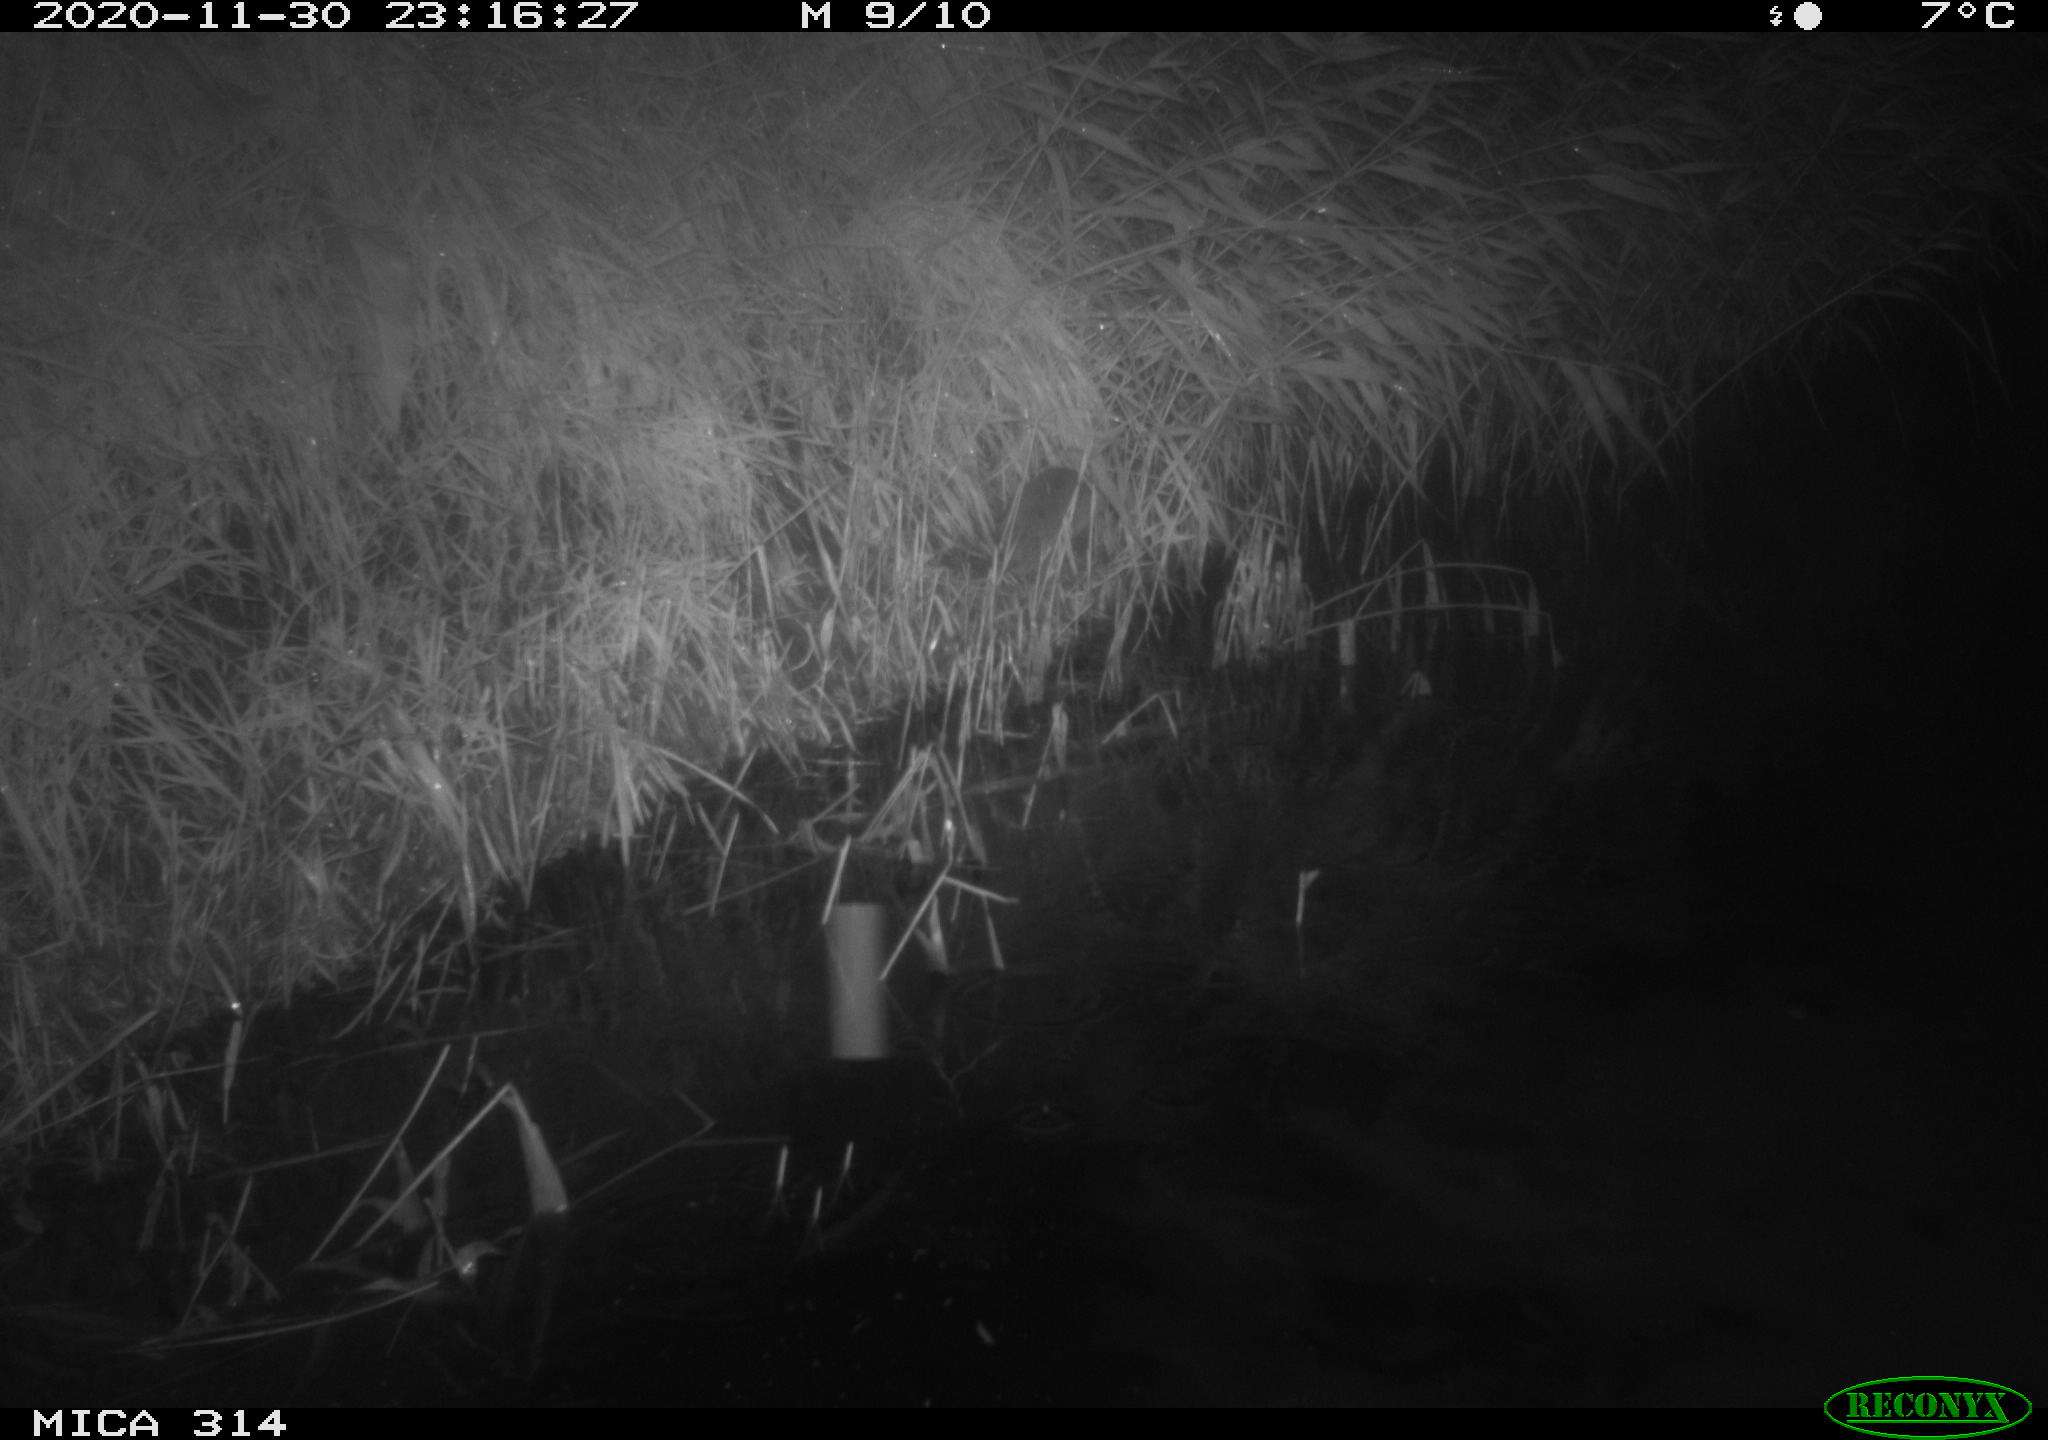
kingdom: Animalia
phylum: Chordata
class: Mammalia
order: Rodentia
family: Muridae
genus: Rattus
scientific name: Rattus norvegicus
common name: Brown rat
